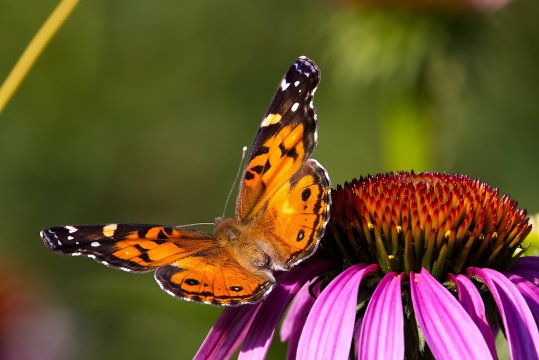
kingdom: Animalia
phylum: Arthropoda
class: Insecta
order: Lepidoptera
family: Nymphalidae
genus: Vanessa
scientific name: Vanessa virginiensis
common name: American Lady
